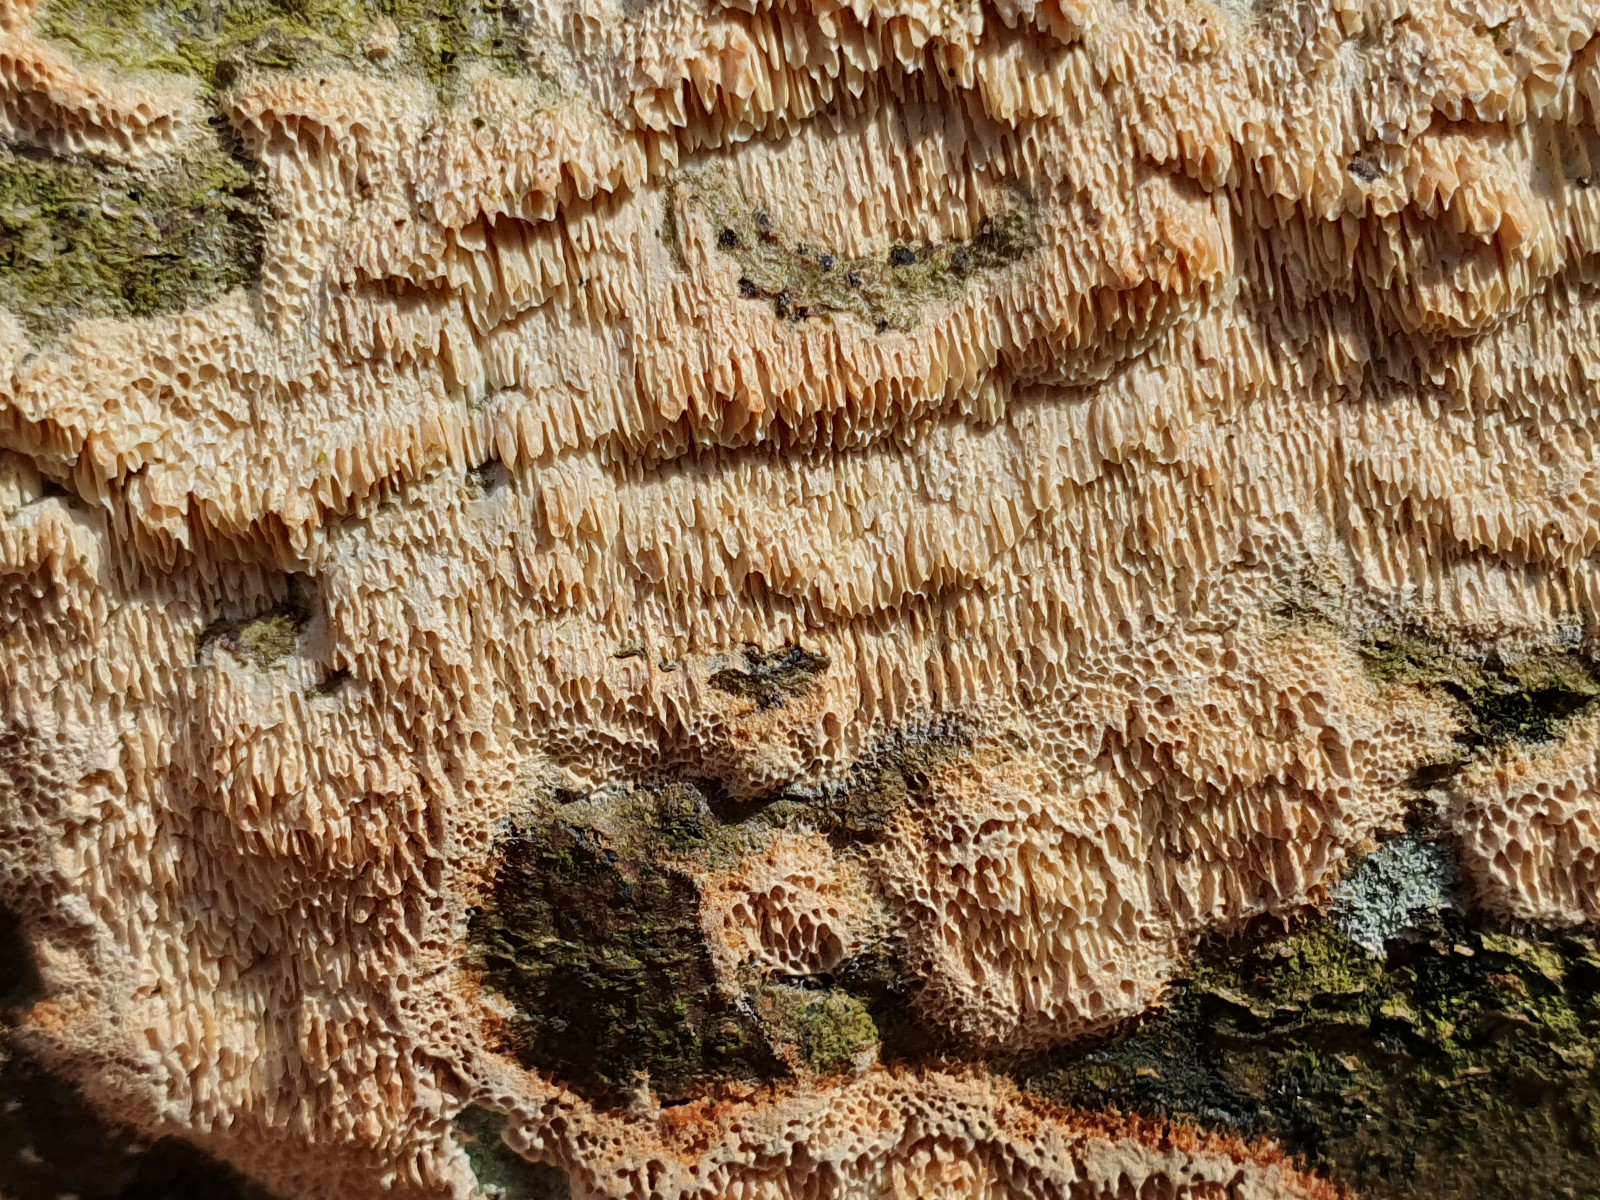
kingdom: Fungi
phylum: Basidiomycota
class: Agaricomycetes
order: Hymenochaetales
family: Schizoporaceae
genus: Xylodon
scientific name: Xylodon
